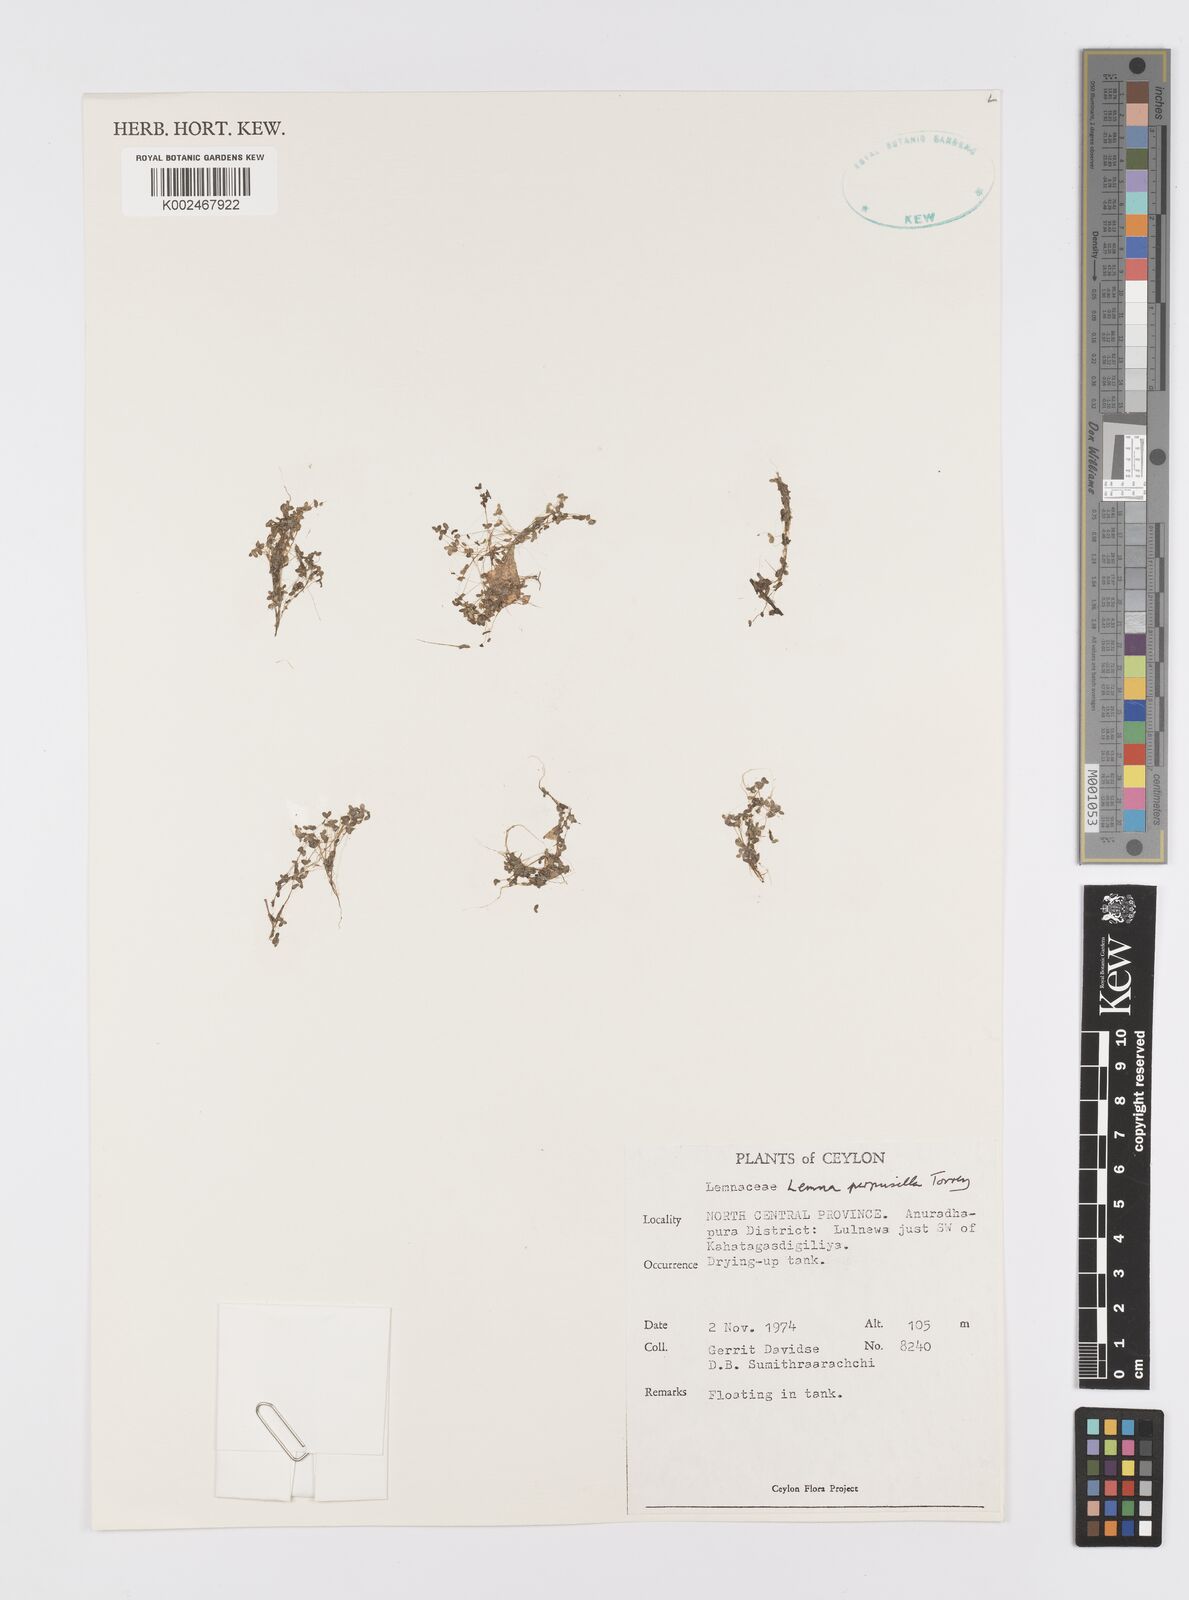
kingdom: Plantae
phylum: Tracheophyta
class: Liliopsida
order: Alismatales
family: Araceae
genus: Lemna
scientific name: Lemna perpusilla
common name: Duckweed
